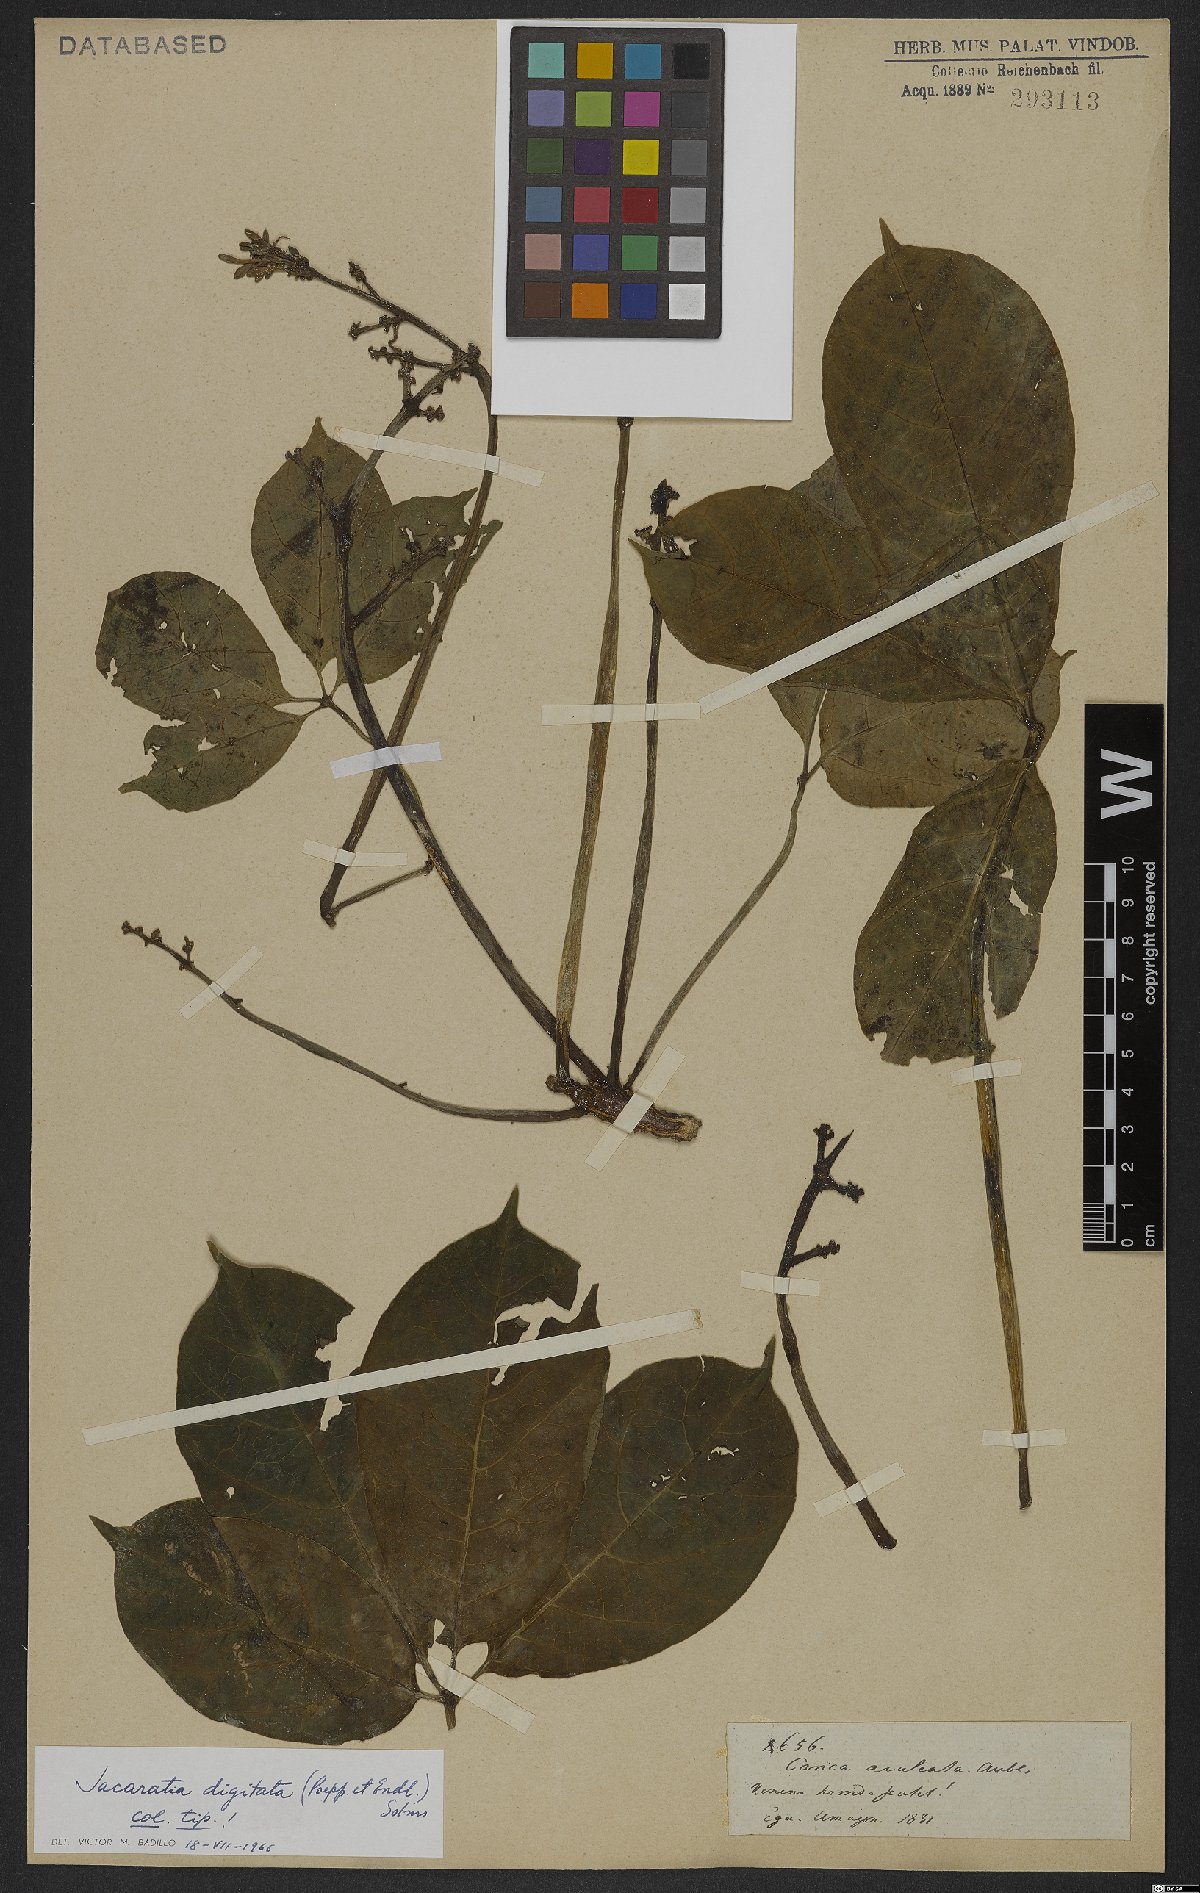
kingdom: Plantae
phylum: Tracheophyta
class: Magnoliopsida
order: Brassicales
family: Caricaceae
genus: Jacaratia
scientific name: Jacaratia digitata
